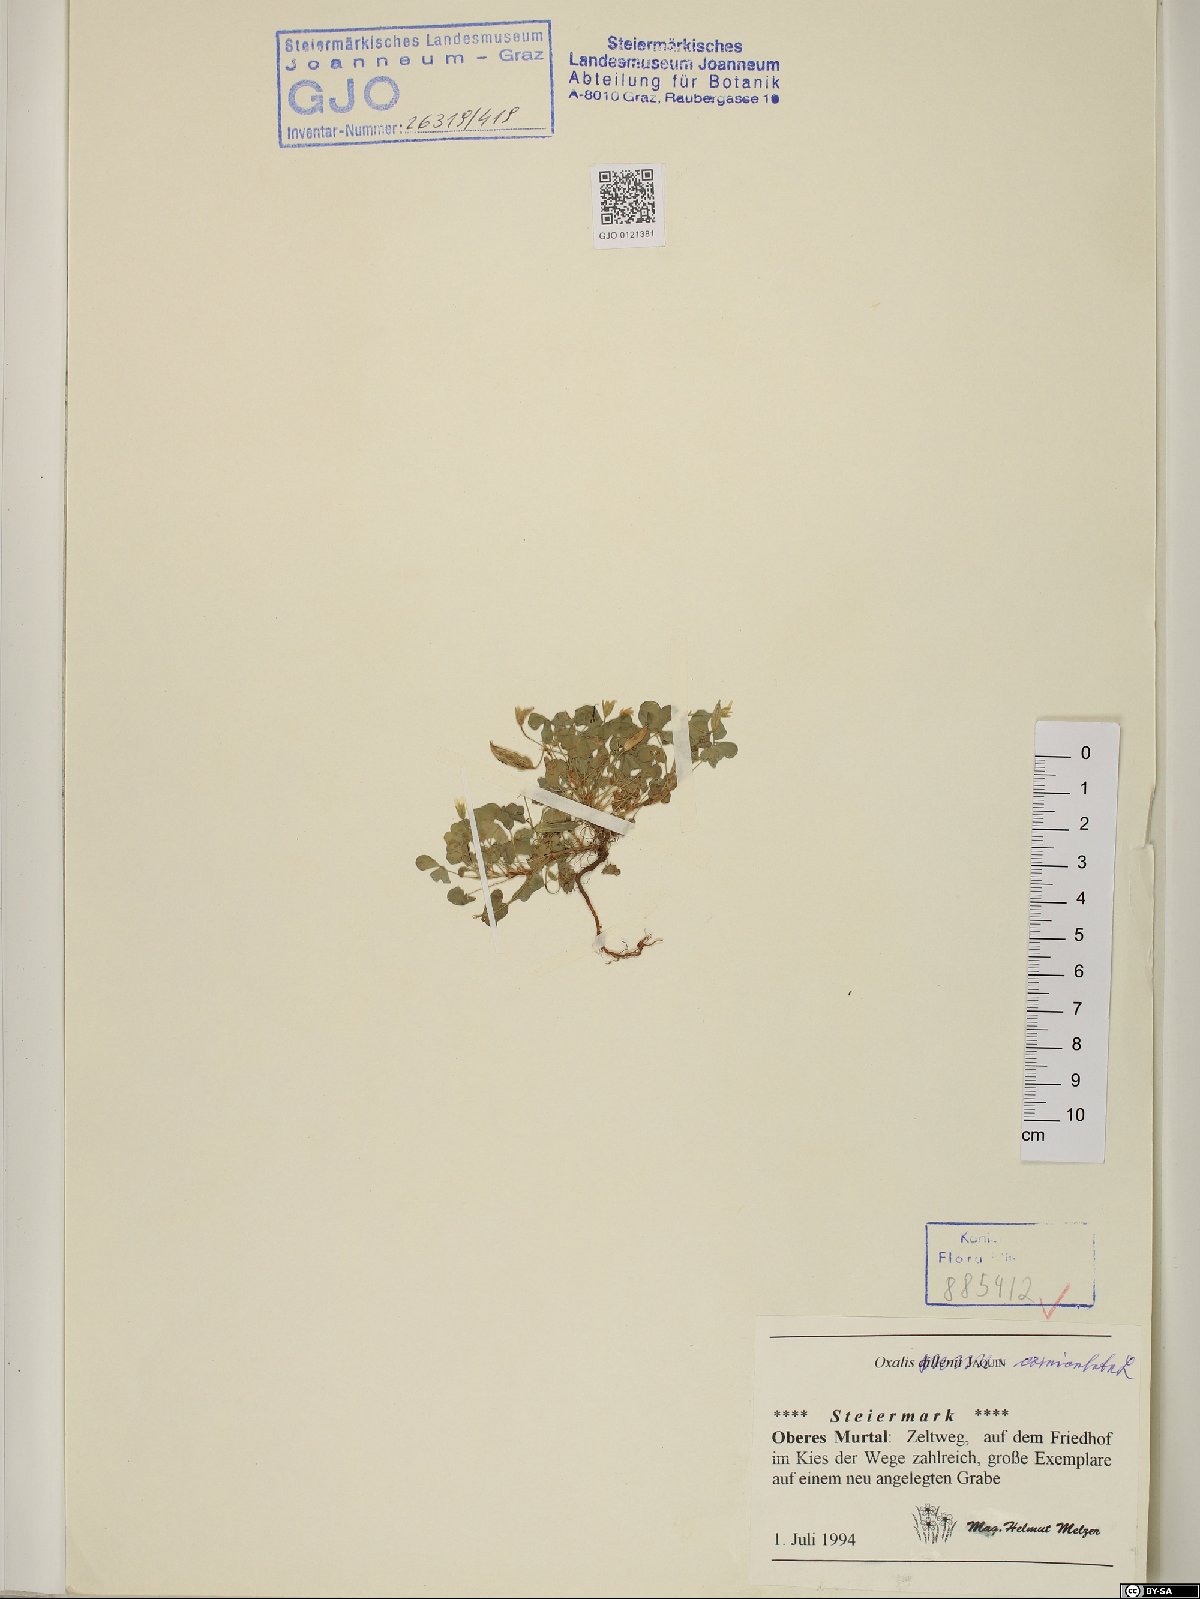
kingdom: Plantae
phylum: Tracheophyta
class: Magnoliopsida
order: Oxalidales
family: Oxalidaceae
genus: Oxalis
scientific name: Oxalis corniculata
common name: Procumbent yellow-sorrel
